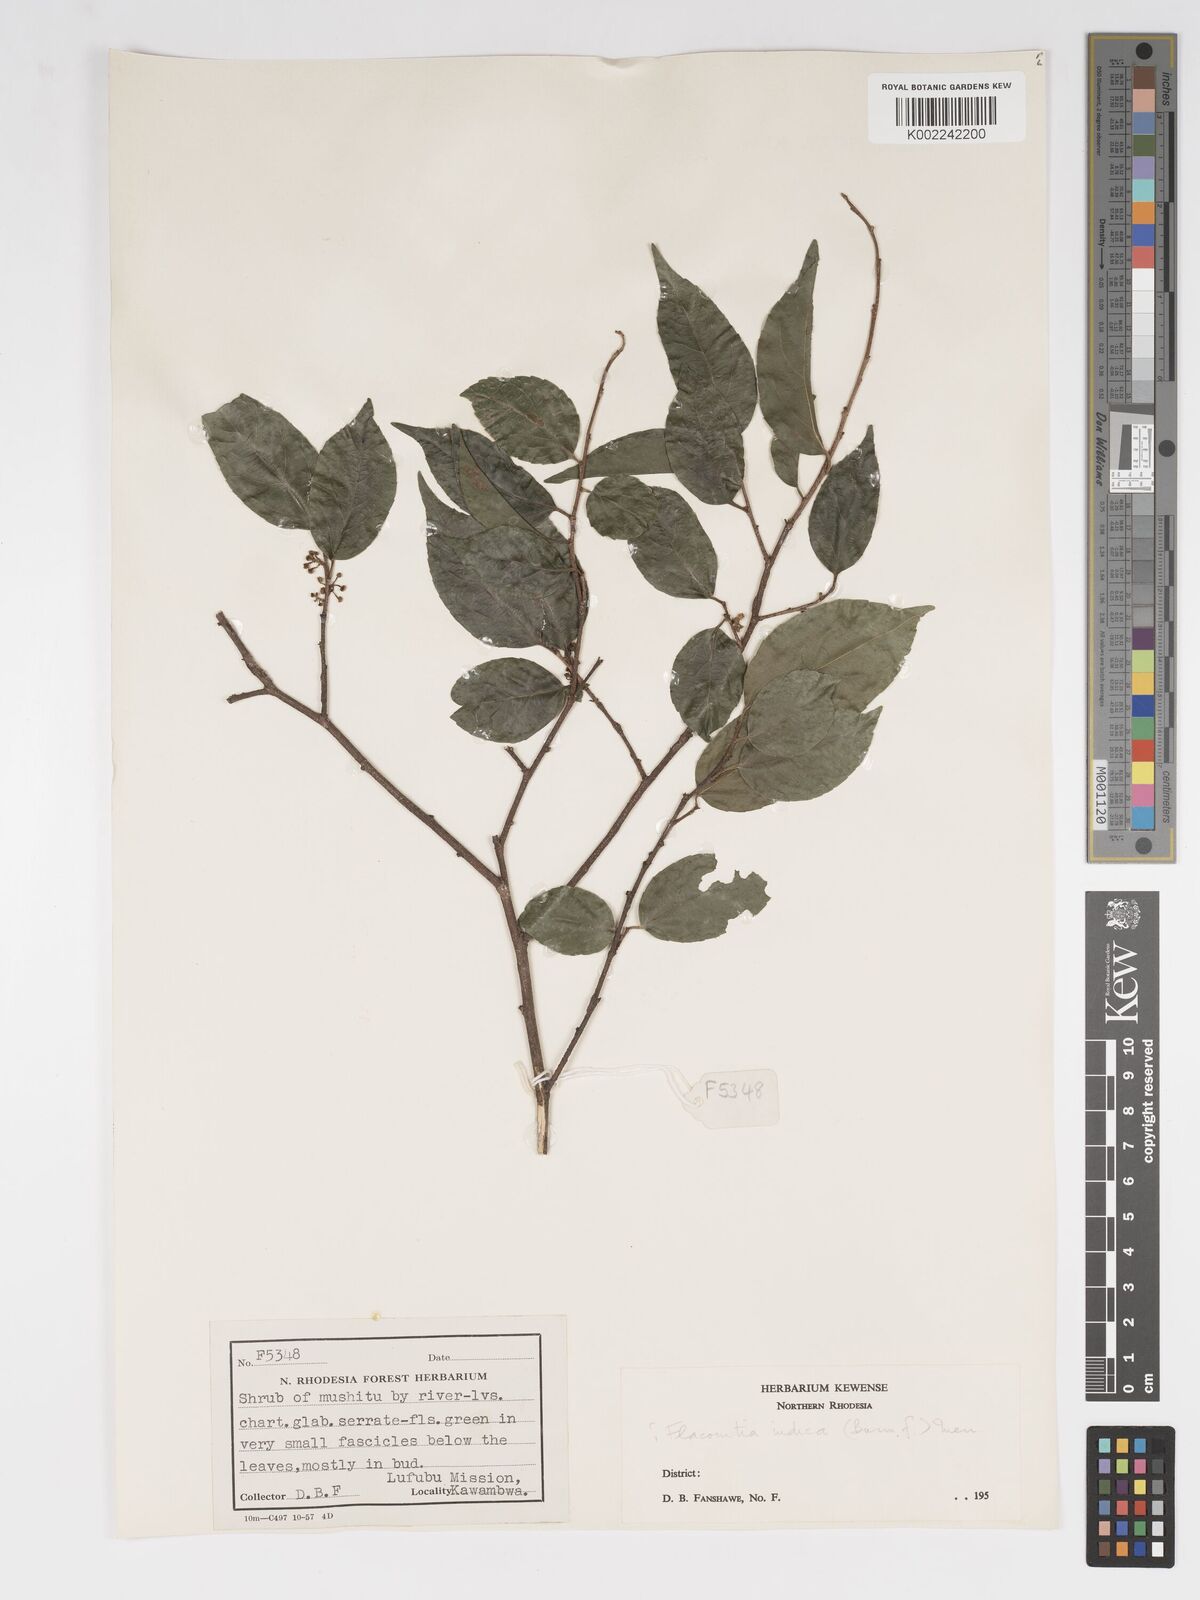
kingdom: Plantae
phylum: Tracheophyta
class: Magnoliopsida
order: Malpighiales
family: Salicaceae
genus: Flacourtia
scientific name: Flacourtia indica
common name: Governor's plum
